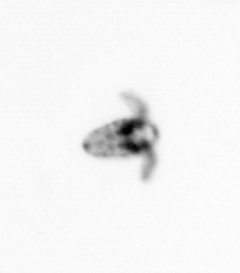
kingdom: Animalia
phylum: Arthropoda
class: Copepoda
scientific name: Copepoda
